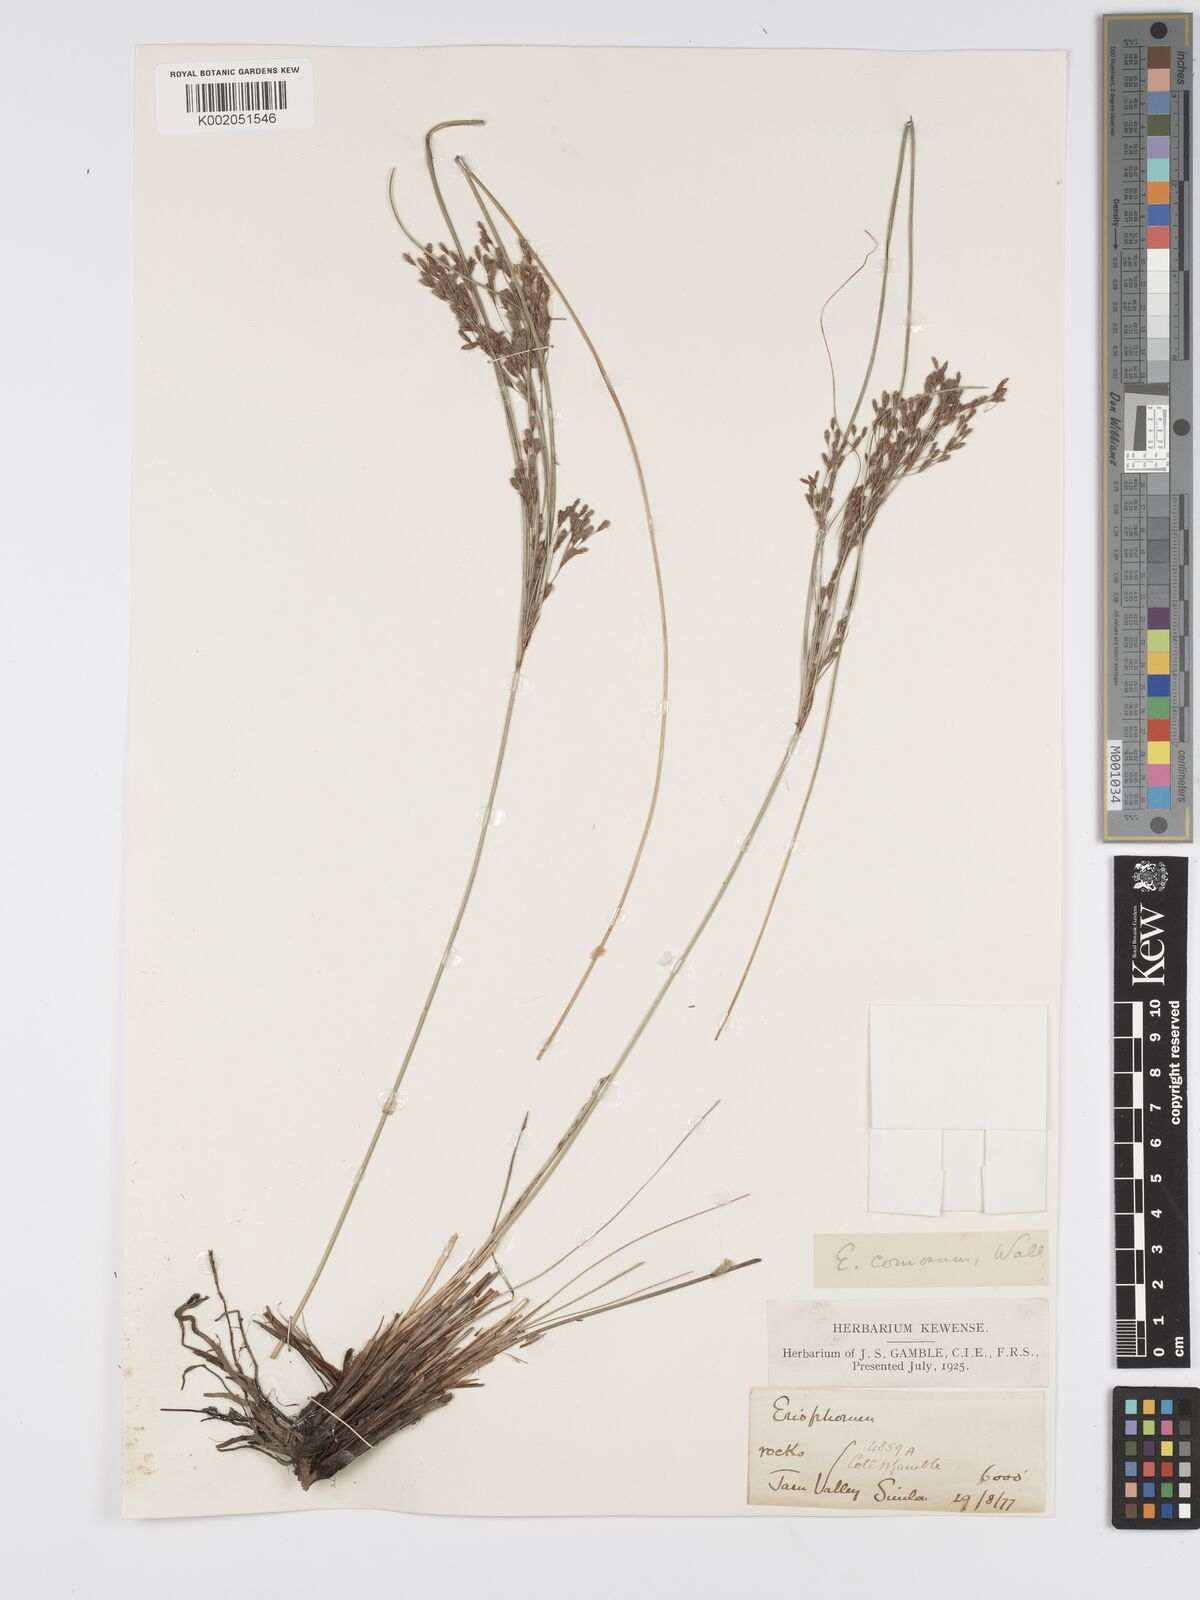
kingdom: Plantae
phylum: Tracheophyta
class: Liliopsida
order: Poales
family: Cyperaceae
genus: Erioscirpus
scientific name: Erioscirpus comosus
